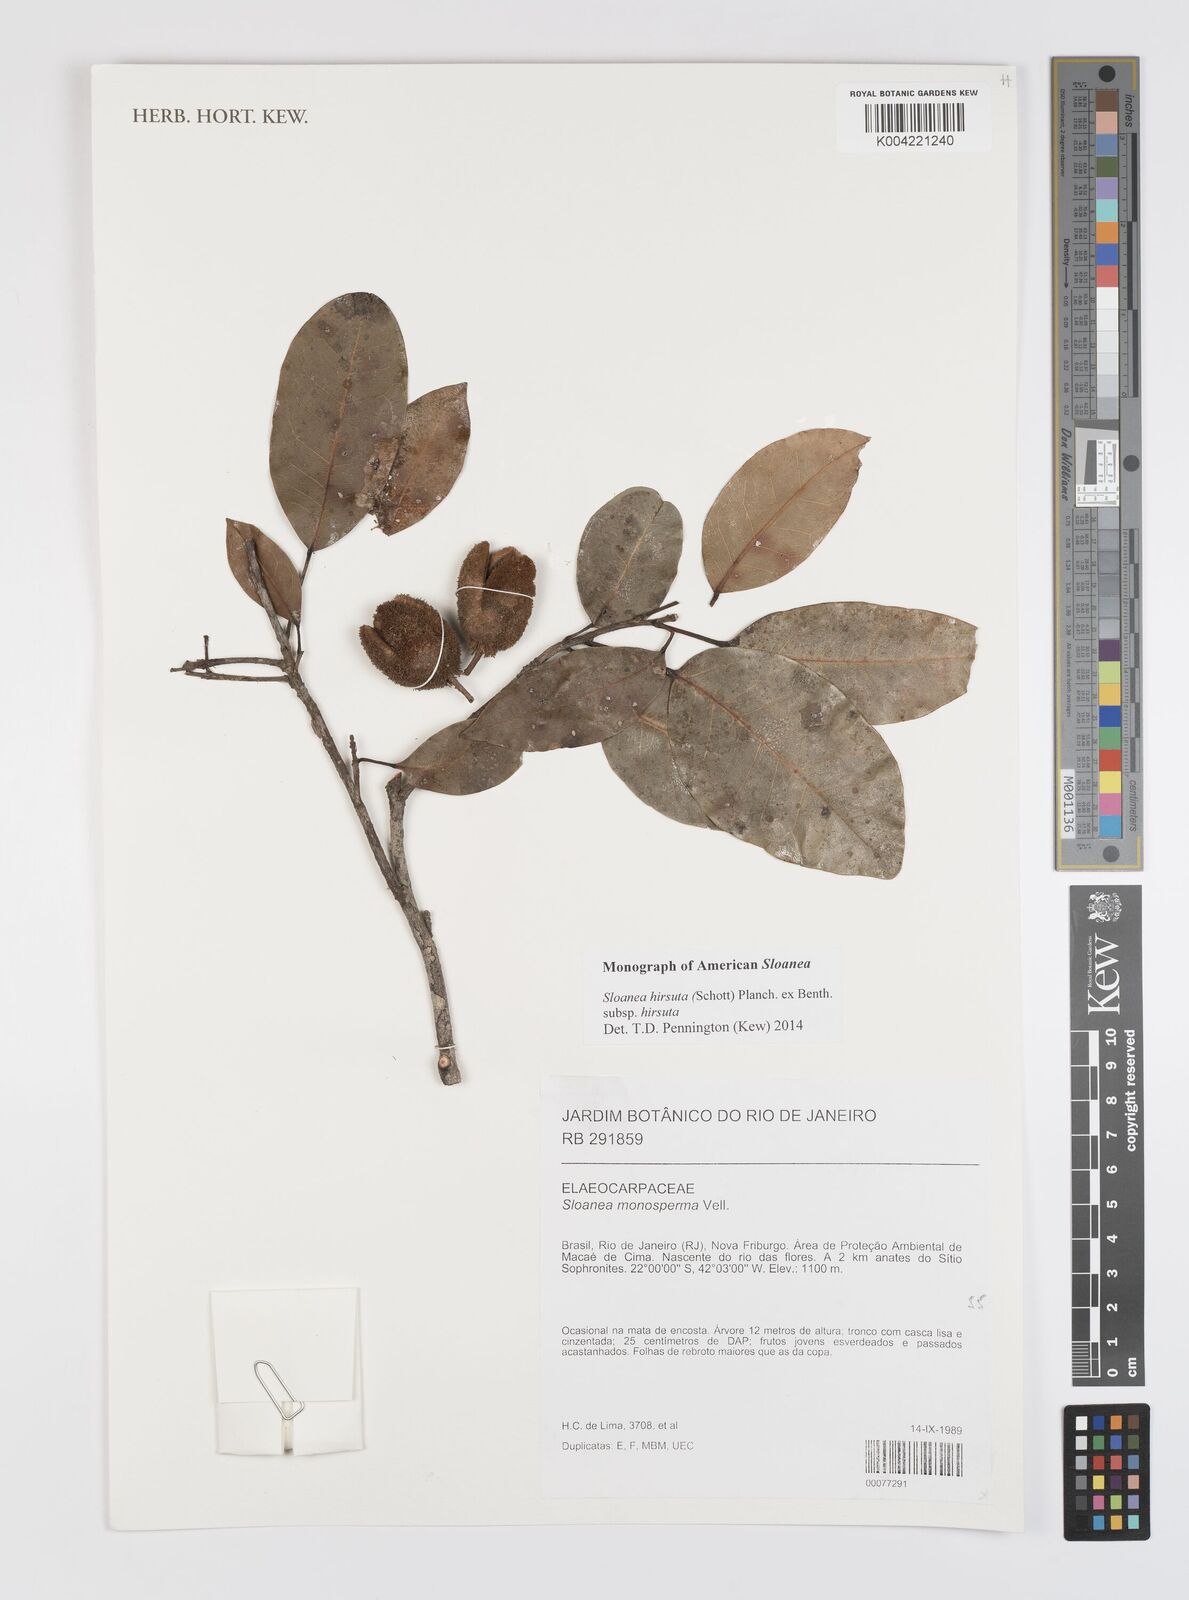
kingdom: Plantae
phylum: Tracheophyta
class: Magnoliopsida
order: Oxalidales
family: Elaeocarpaceae
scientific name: Elaeocarpaceae
